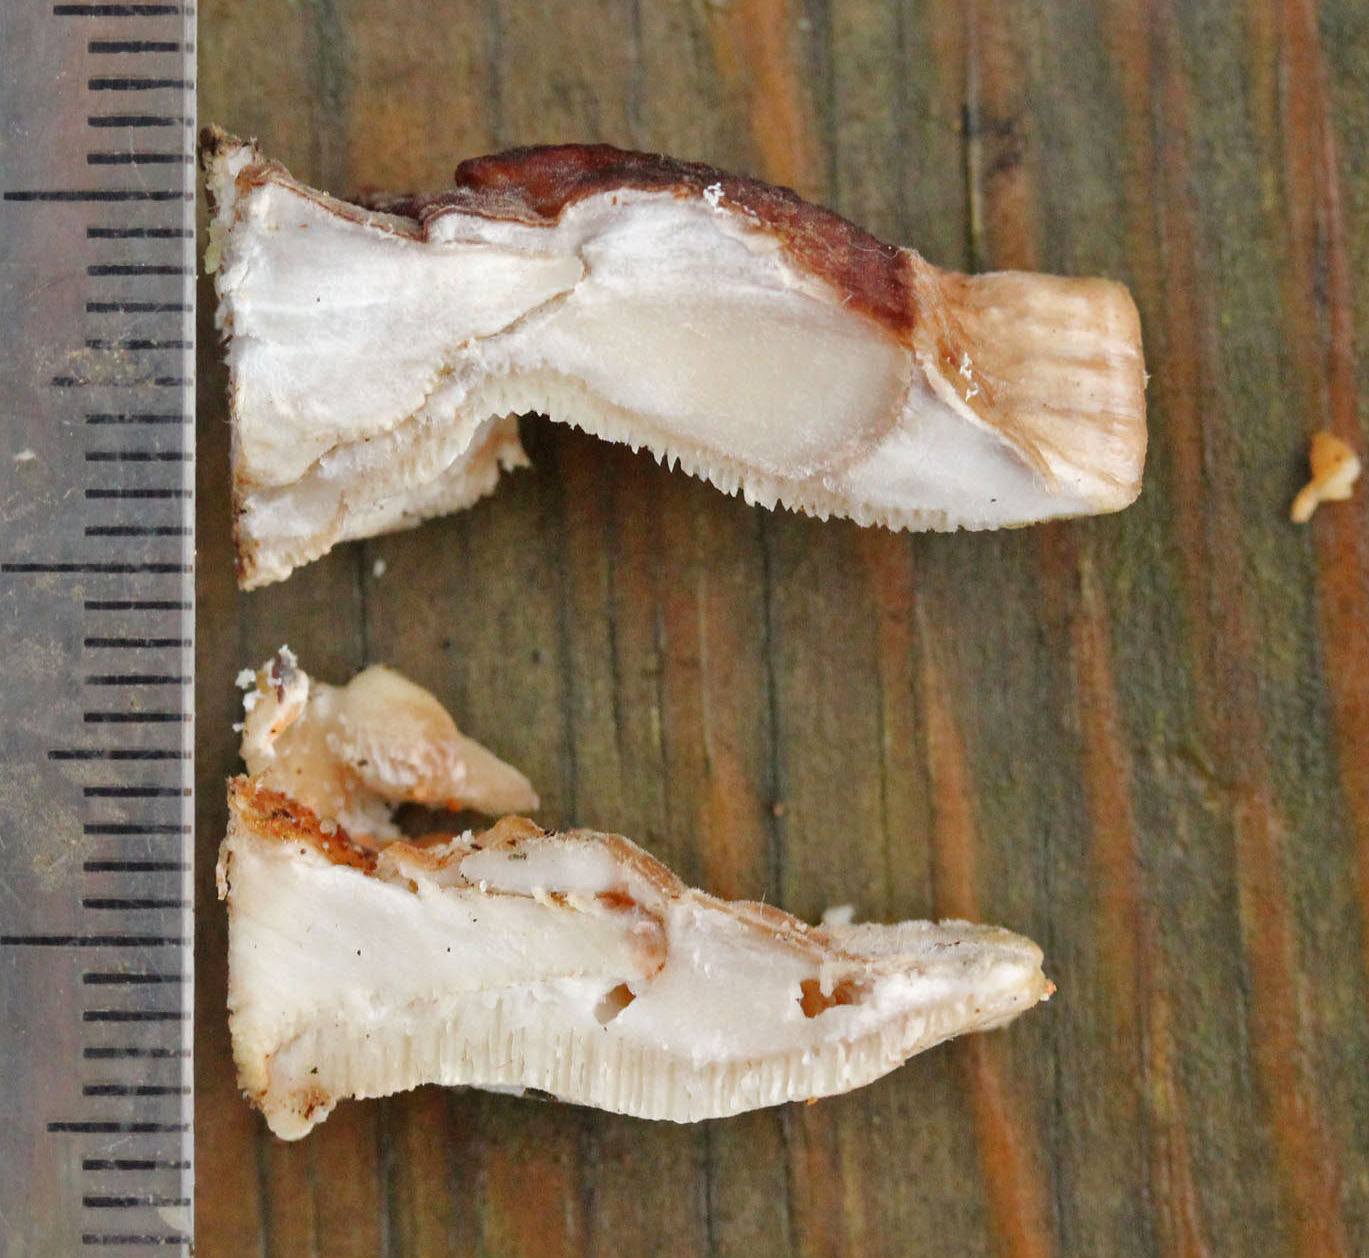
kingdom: Fungi
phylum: Basidiomycota
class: Agaricomycetes
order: Polyporales
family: Polyporaceae
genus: Trametes
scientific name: Trametes ochracea
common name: bæltet læderporesvamp
